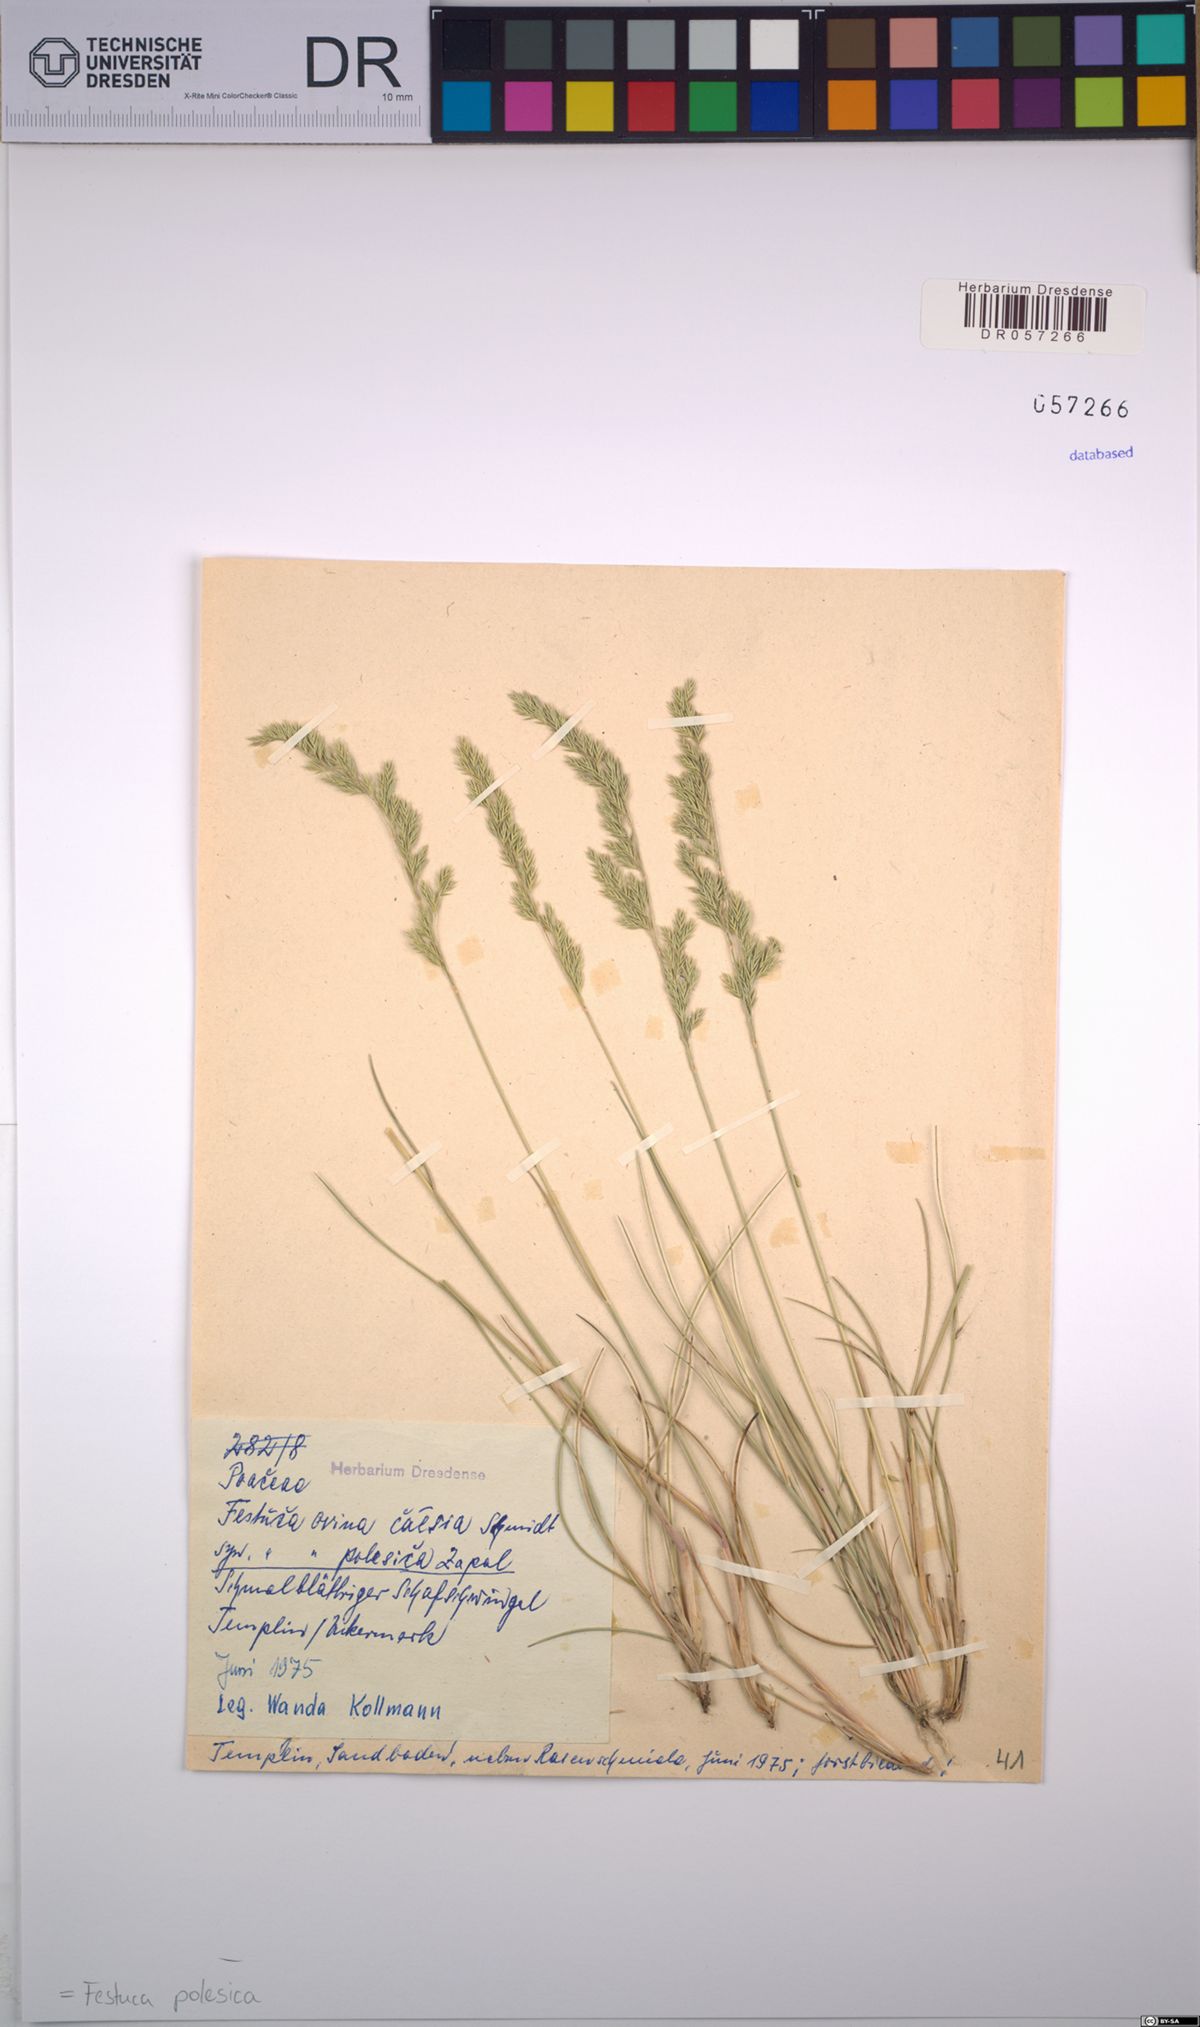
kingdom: Plantae
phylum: Tracheophyta
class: Liliopsida
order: Poales
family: Poaceae
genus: Festuca
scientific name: Festuca beckeri
